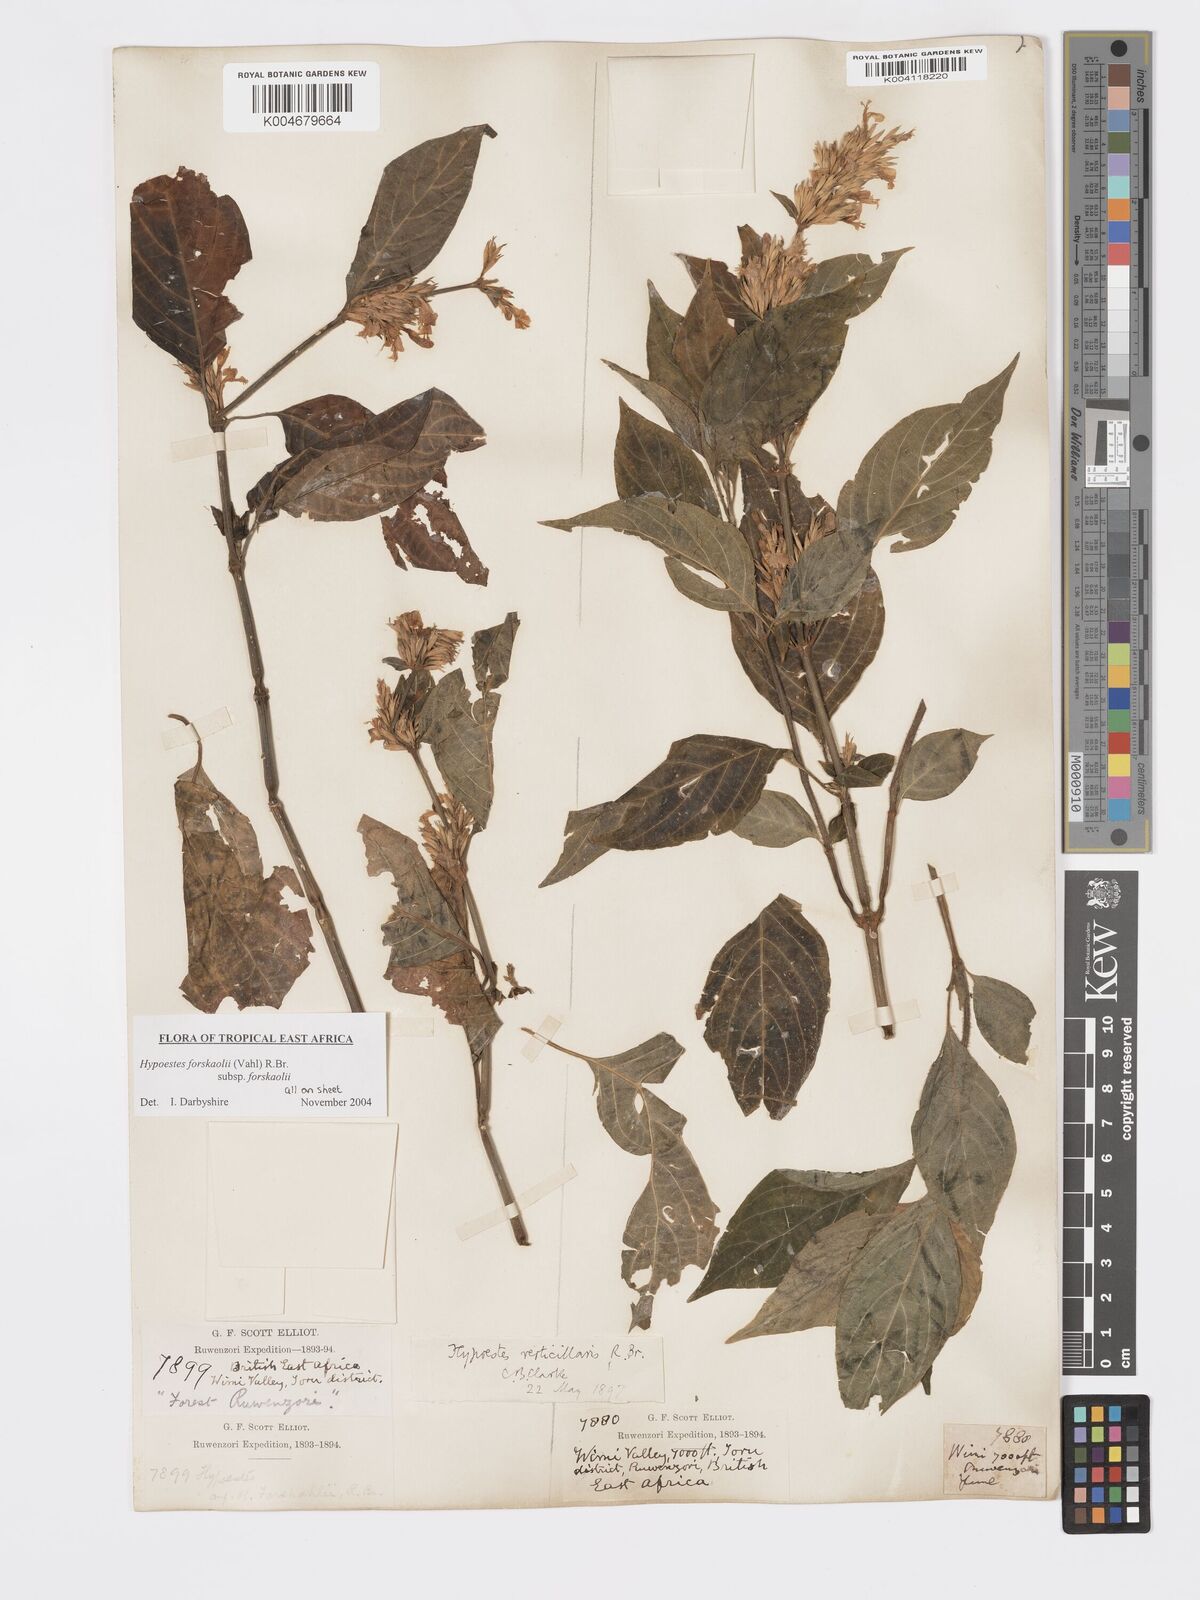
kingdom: Plantae
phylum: Tracheophyta
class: Magnoliopsida
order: Lamiales
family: Acanthaceae
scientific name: Acanthaceae
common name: Acanthaceae
